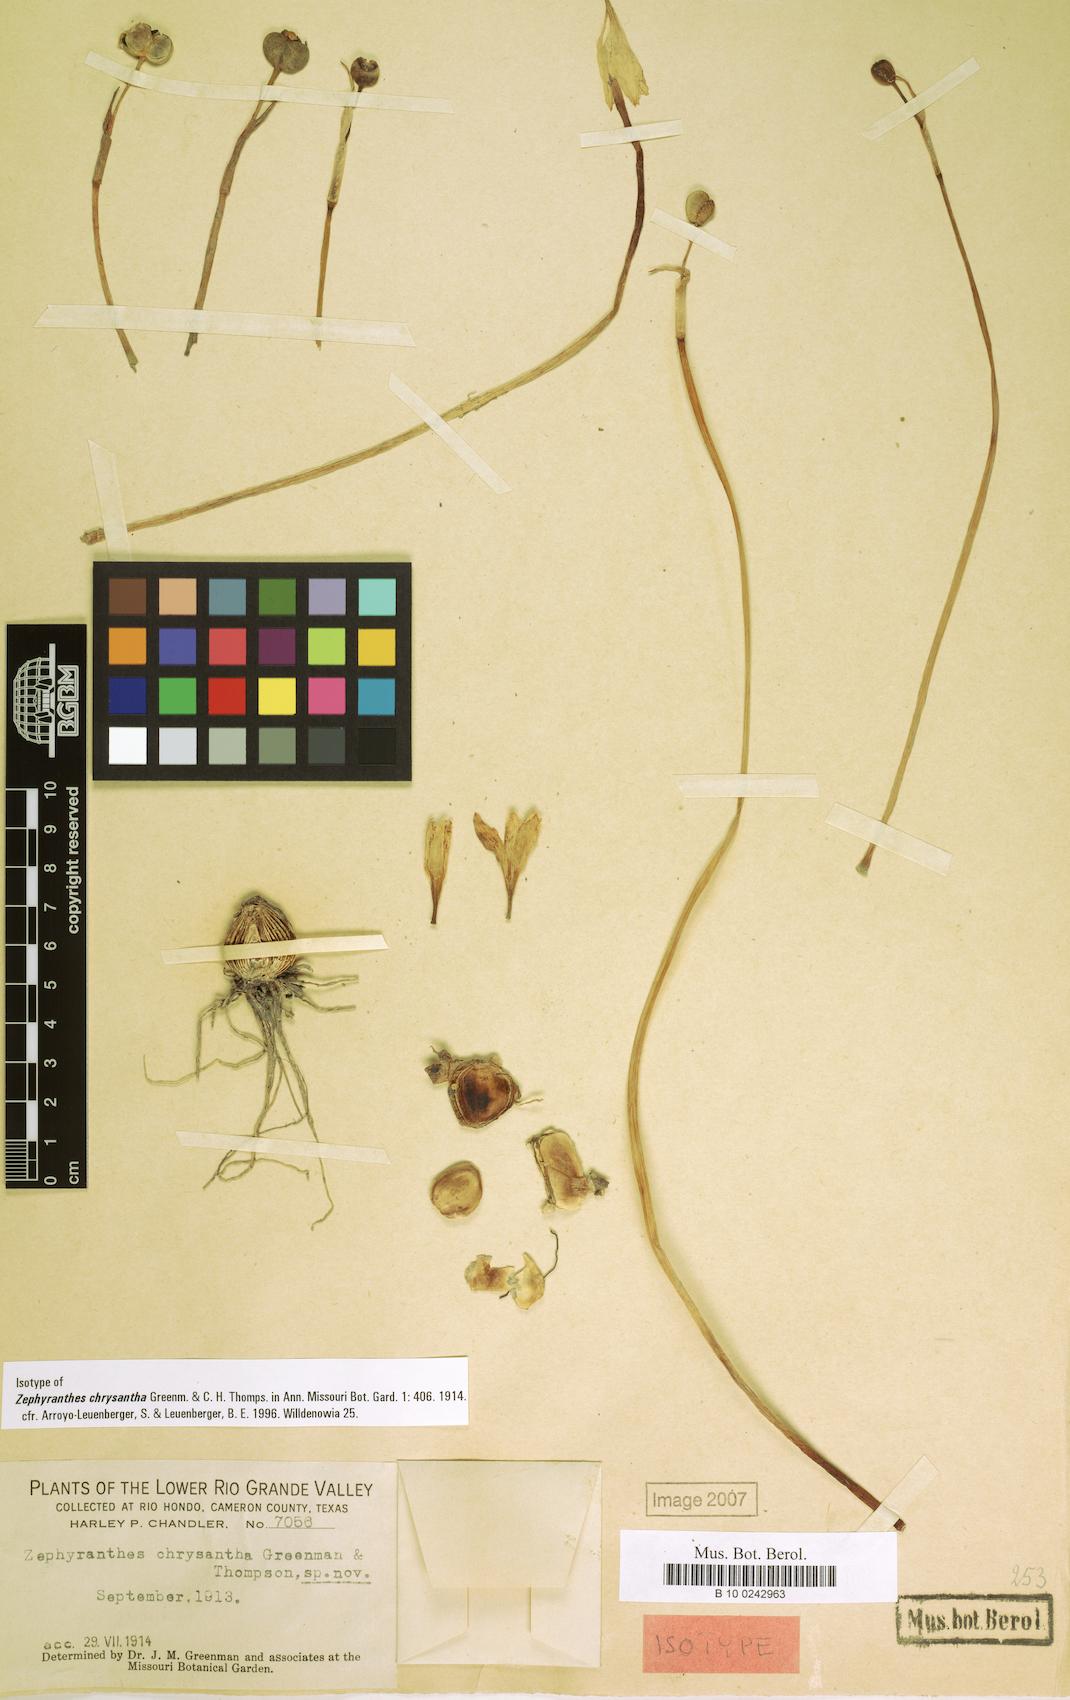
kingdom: Plantae
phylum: Tracheophyta
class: Liliopsida
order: Asparagales
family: Amaryllidaceae
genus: Zephyranthes
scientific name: Zephyranthes chrysantha
